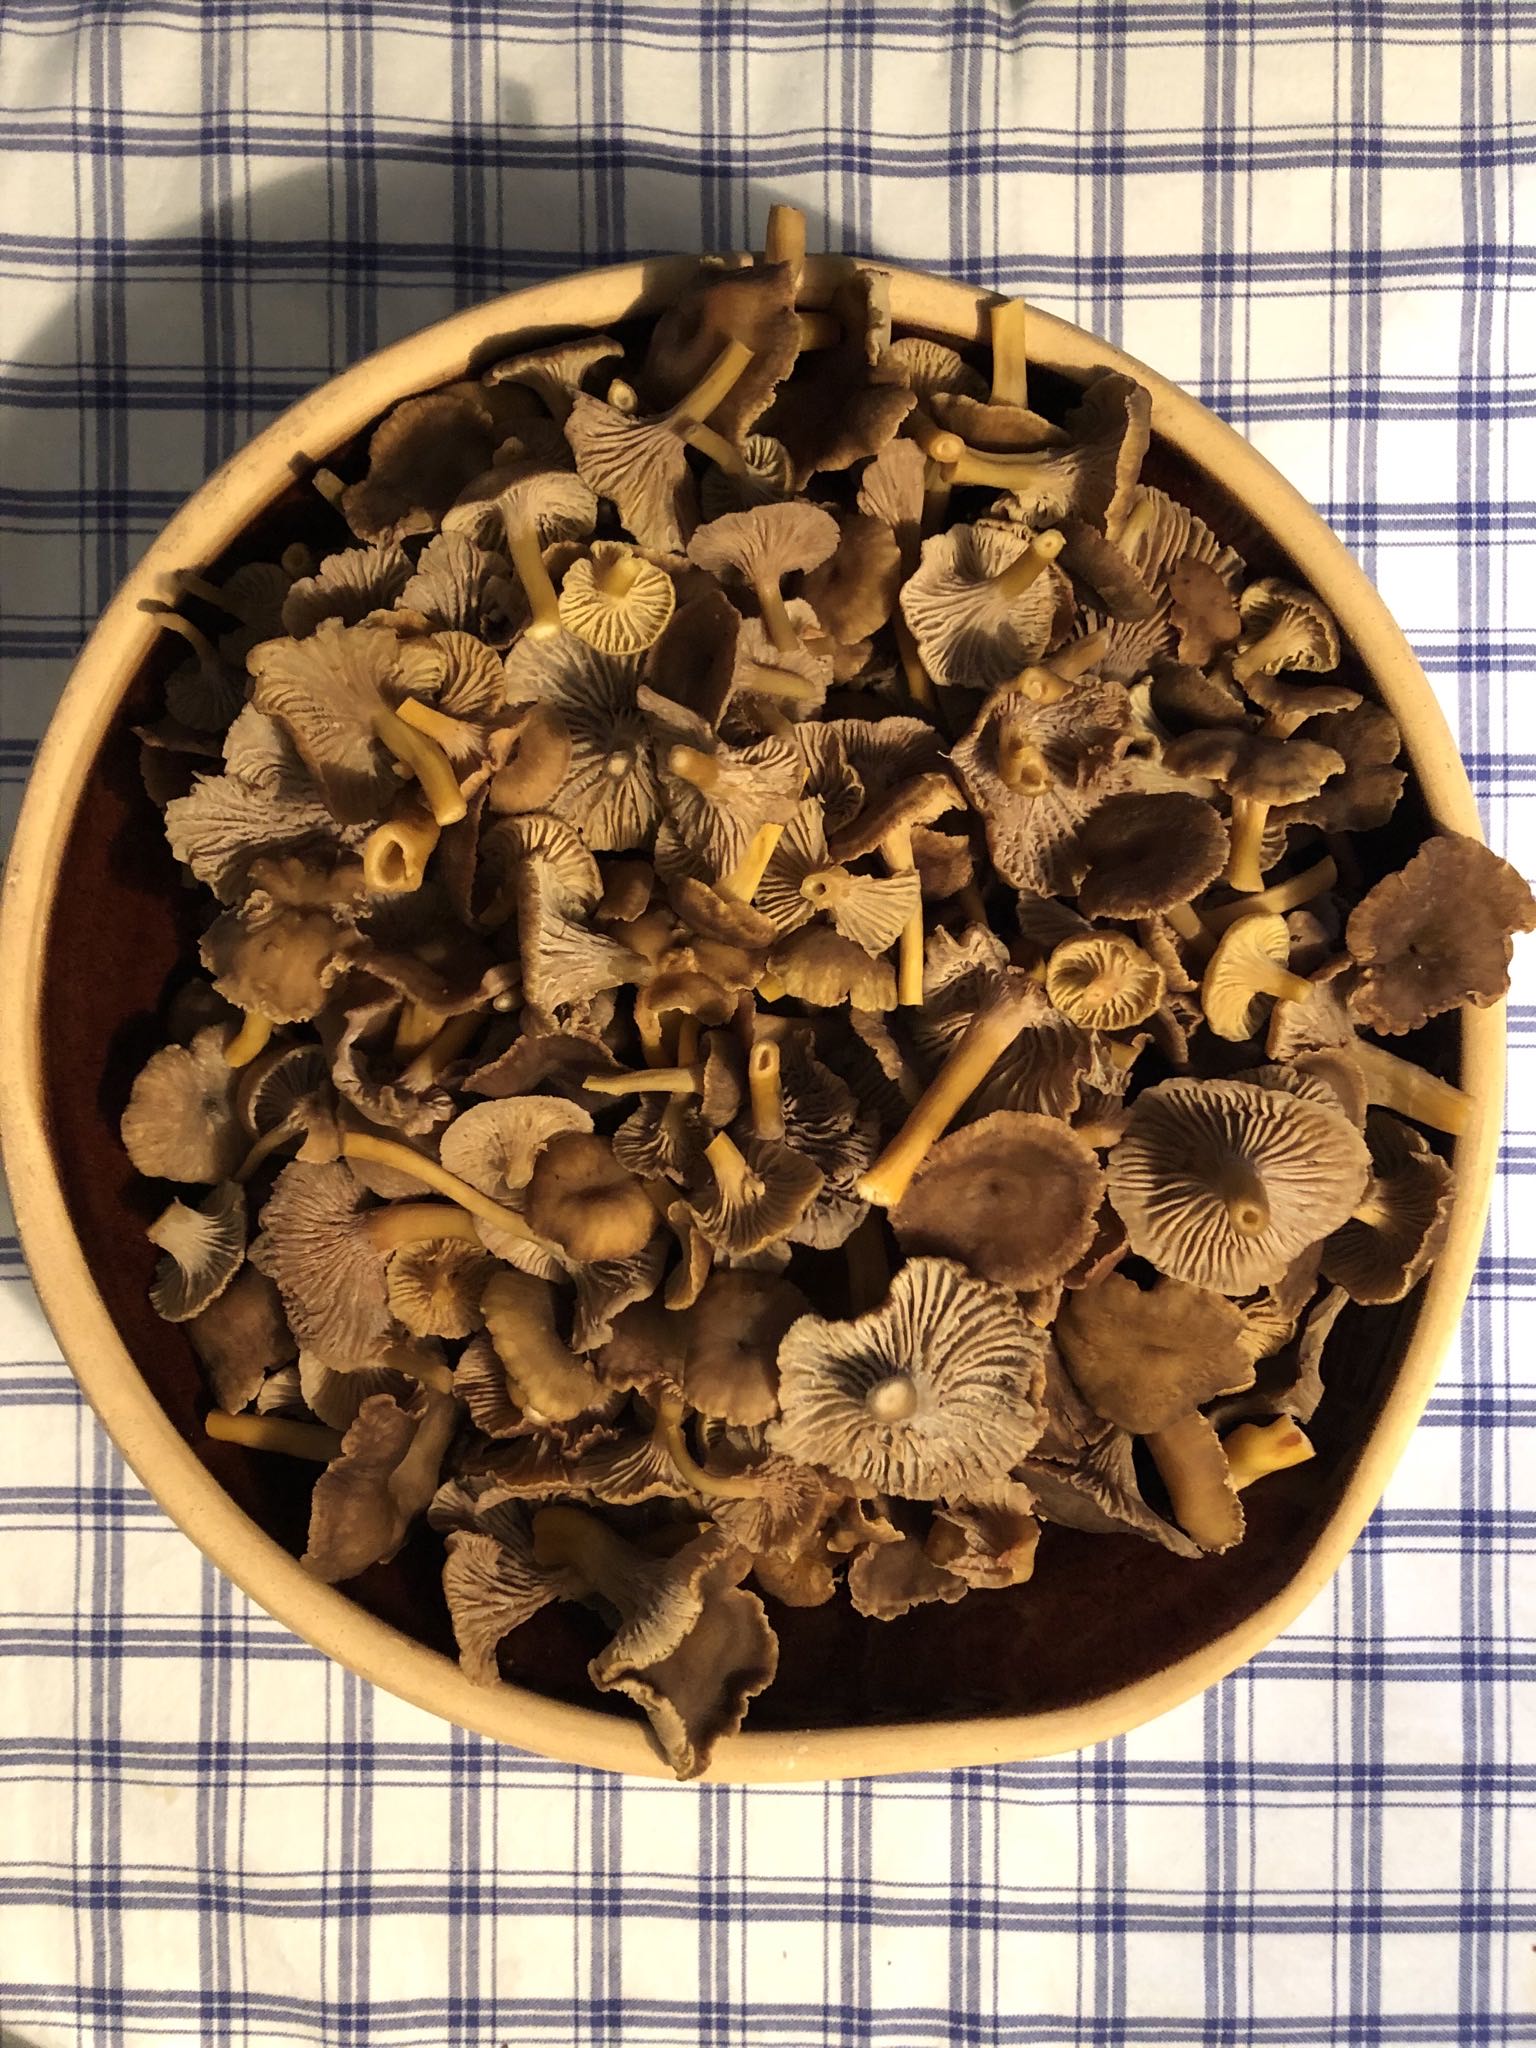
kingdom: Fungi
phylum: Basidiomycota
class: Agaricomycetes
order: Cantharellales
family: Hydnaceae
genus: Craterellus
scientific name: Craterellus tubaeformis
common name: tragt-kantarel
